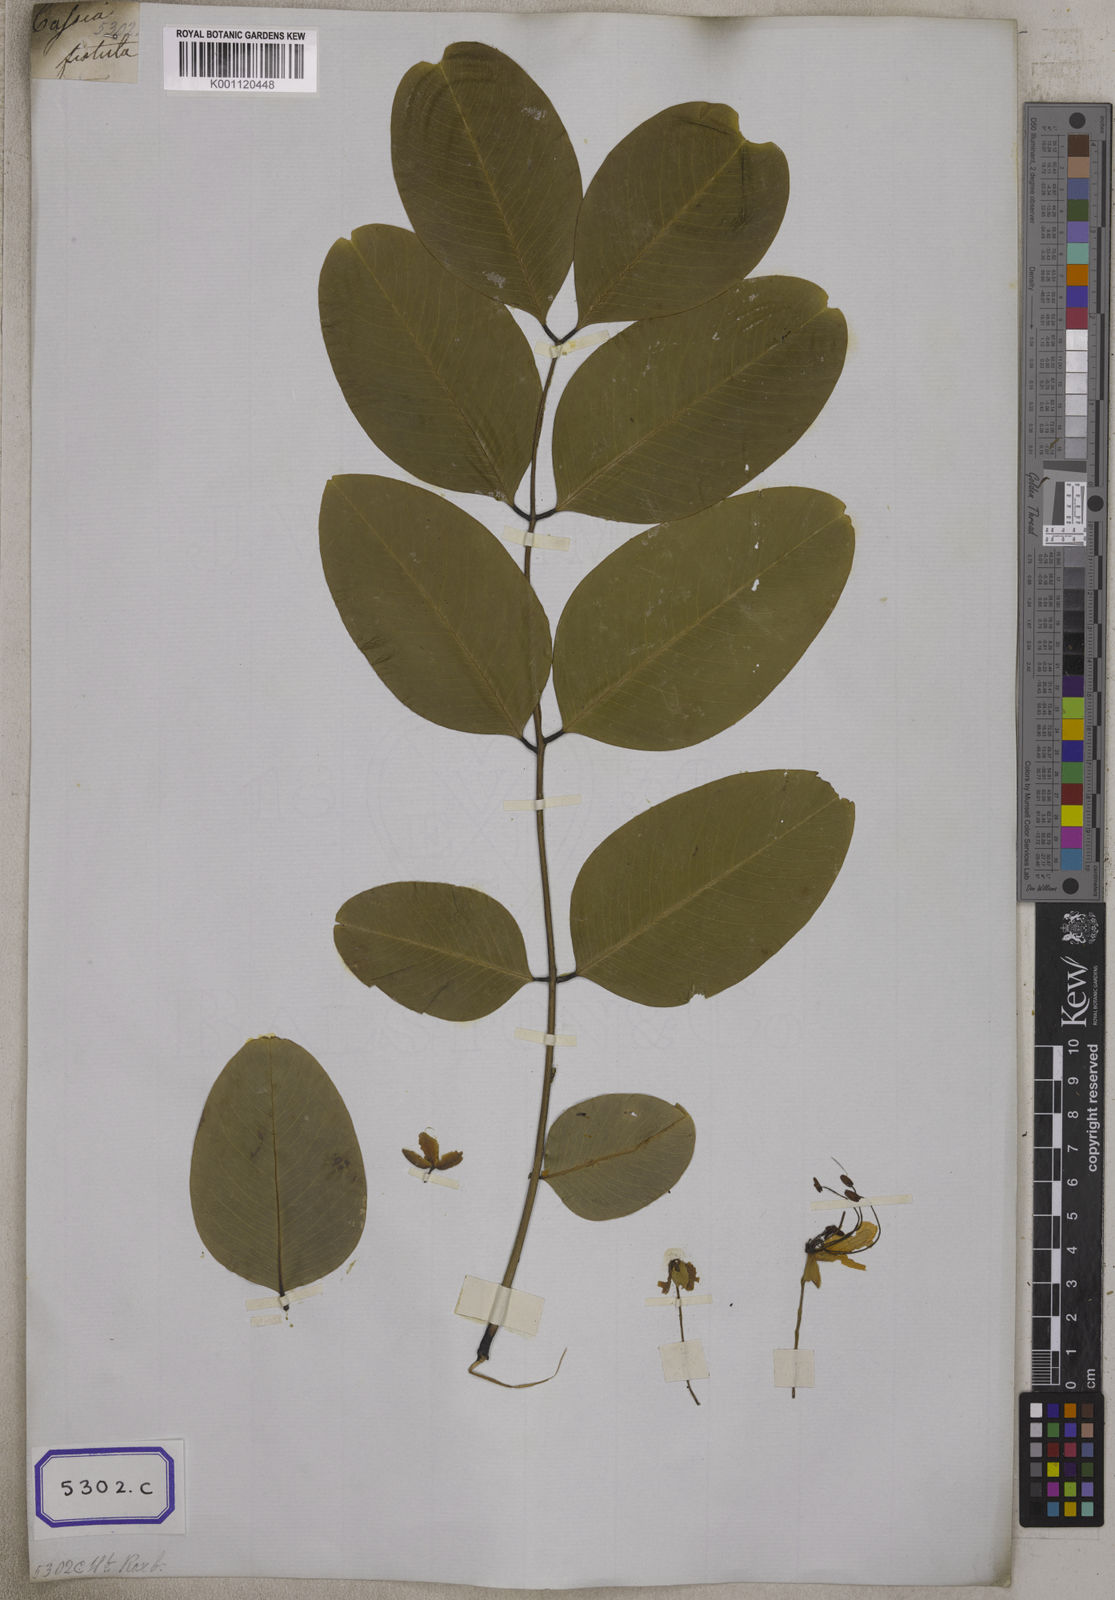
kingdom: Plantae
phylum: Tracheophyta
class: Magnoliopsida
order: Fabales
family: Fabaceae
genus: Cassia
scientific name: Cassia fistula
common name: Golden shower
